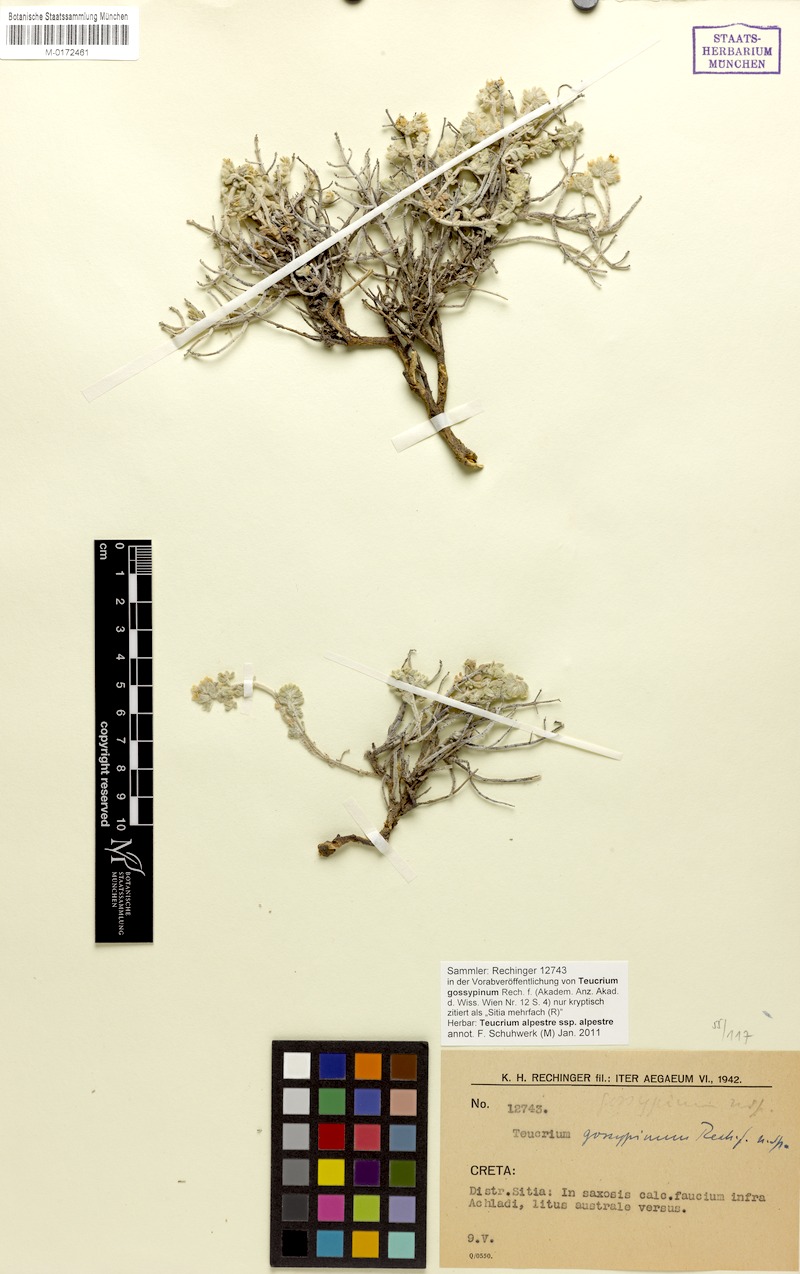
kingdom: Plantae
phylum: Tracheophyta
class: Magnoliopsida
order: Lamiales
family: Lamiaceae
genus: Teucrium
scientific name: Teucrium alpestre
